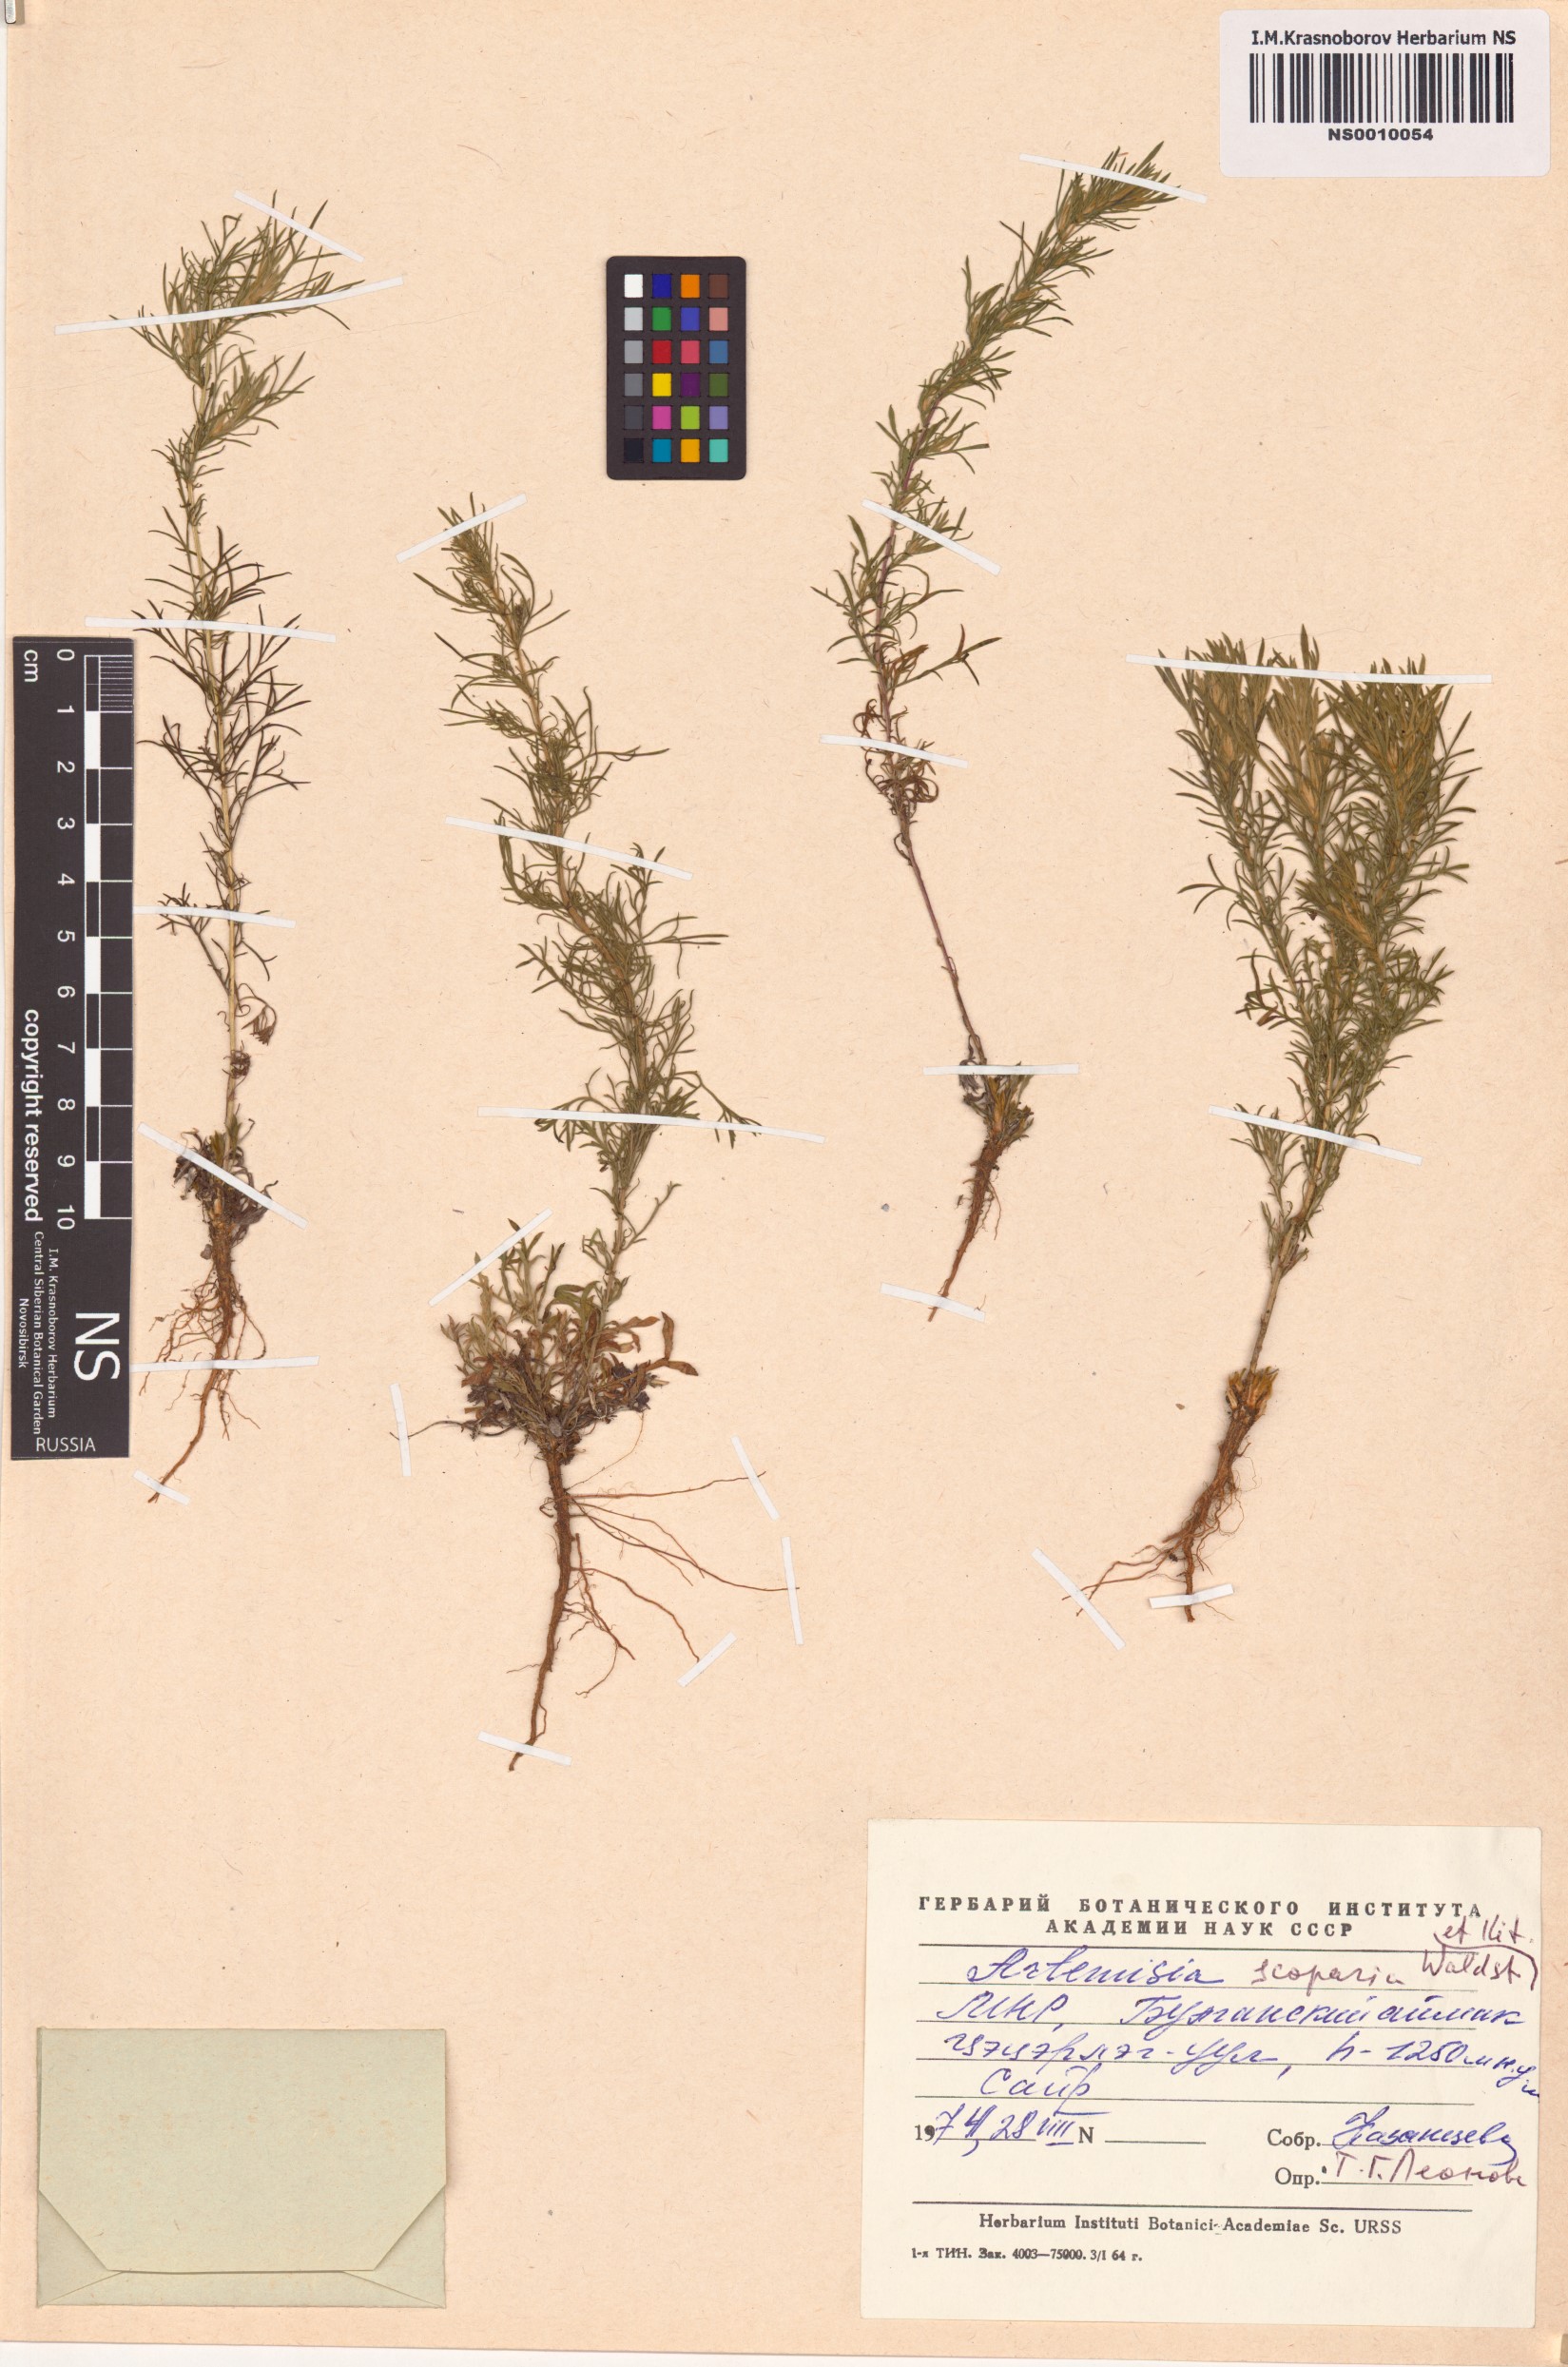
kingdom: Plantae
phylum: Tracheophyta
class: Magnoliopsida
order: Asterales
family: Asteraceae
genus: Artemisia
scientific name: Artemisia scoparia
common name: Redstem wormwood
